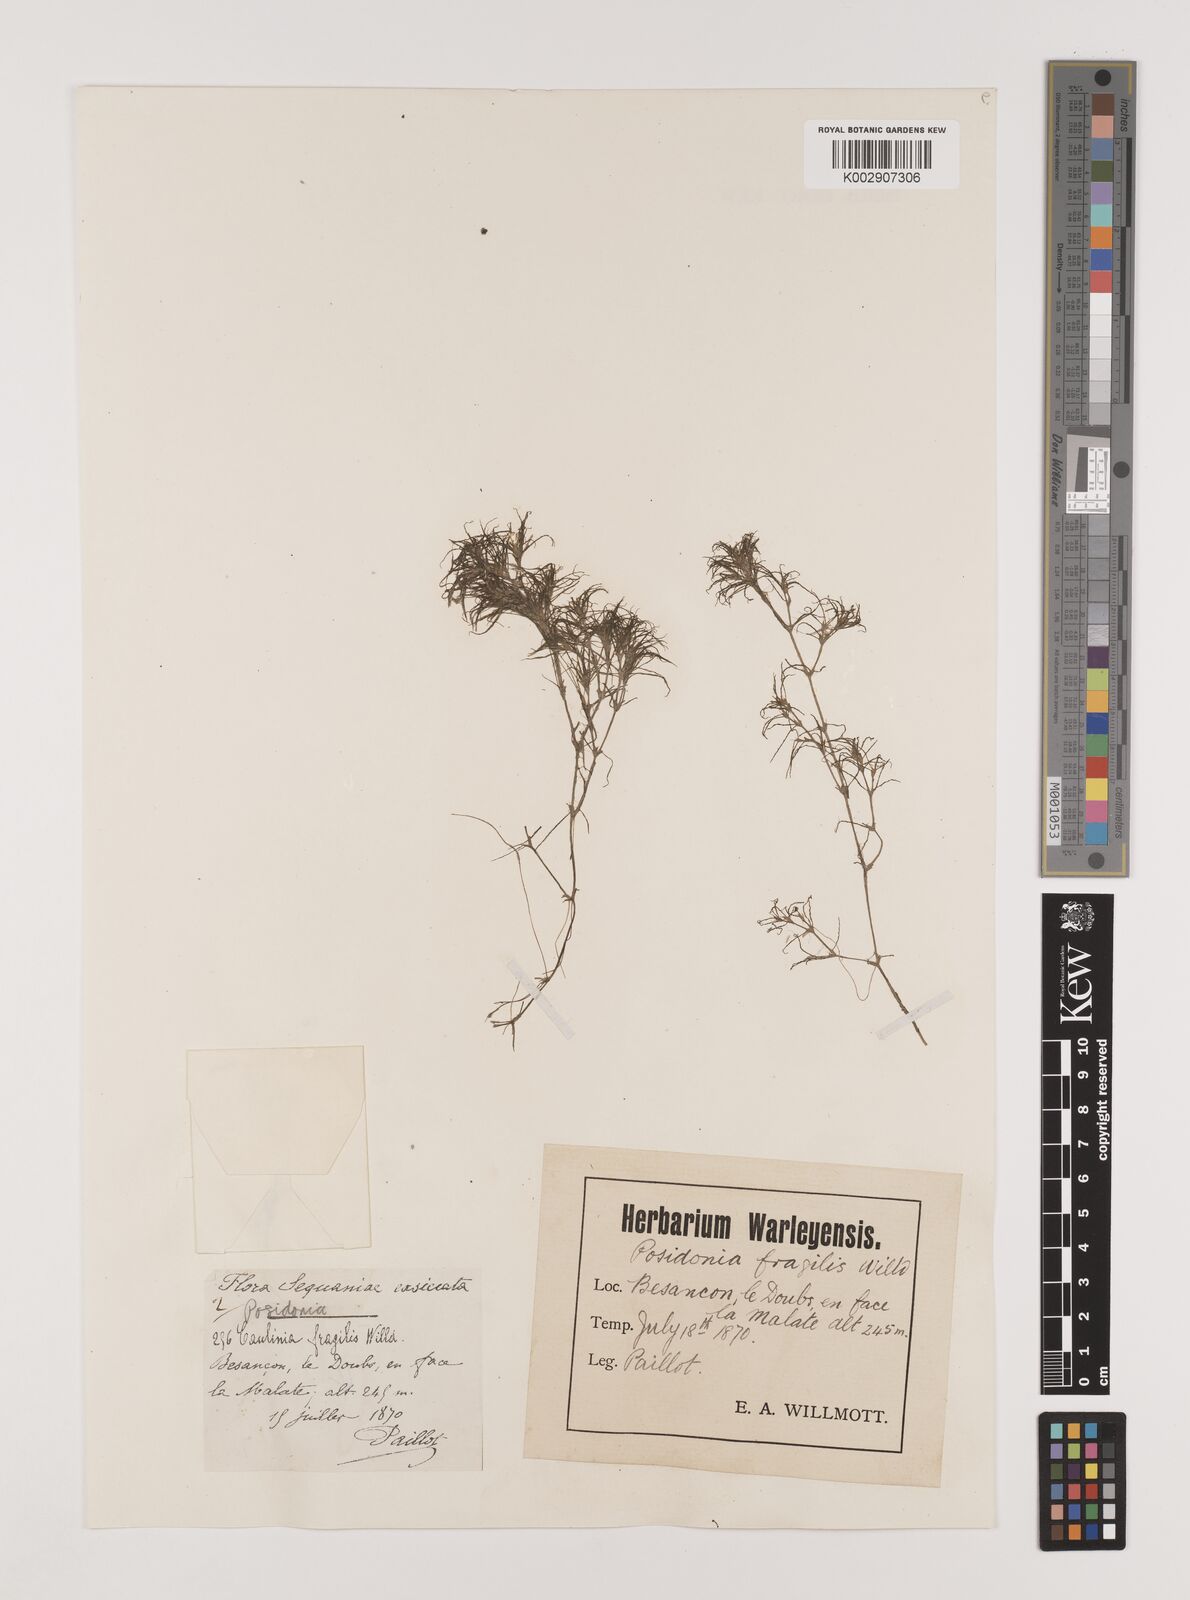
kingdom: Plantae
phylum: Tracheophyta
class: Liliopsida
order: Alismatales
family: Hydrocharitaceae
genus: Najas
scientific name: Najas minor
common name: Brittle naiad
